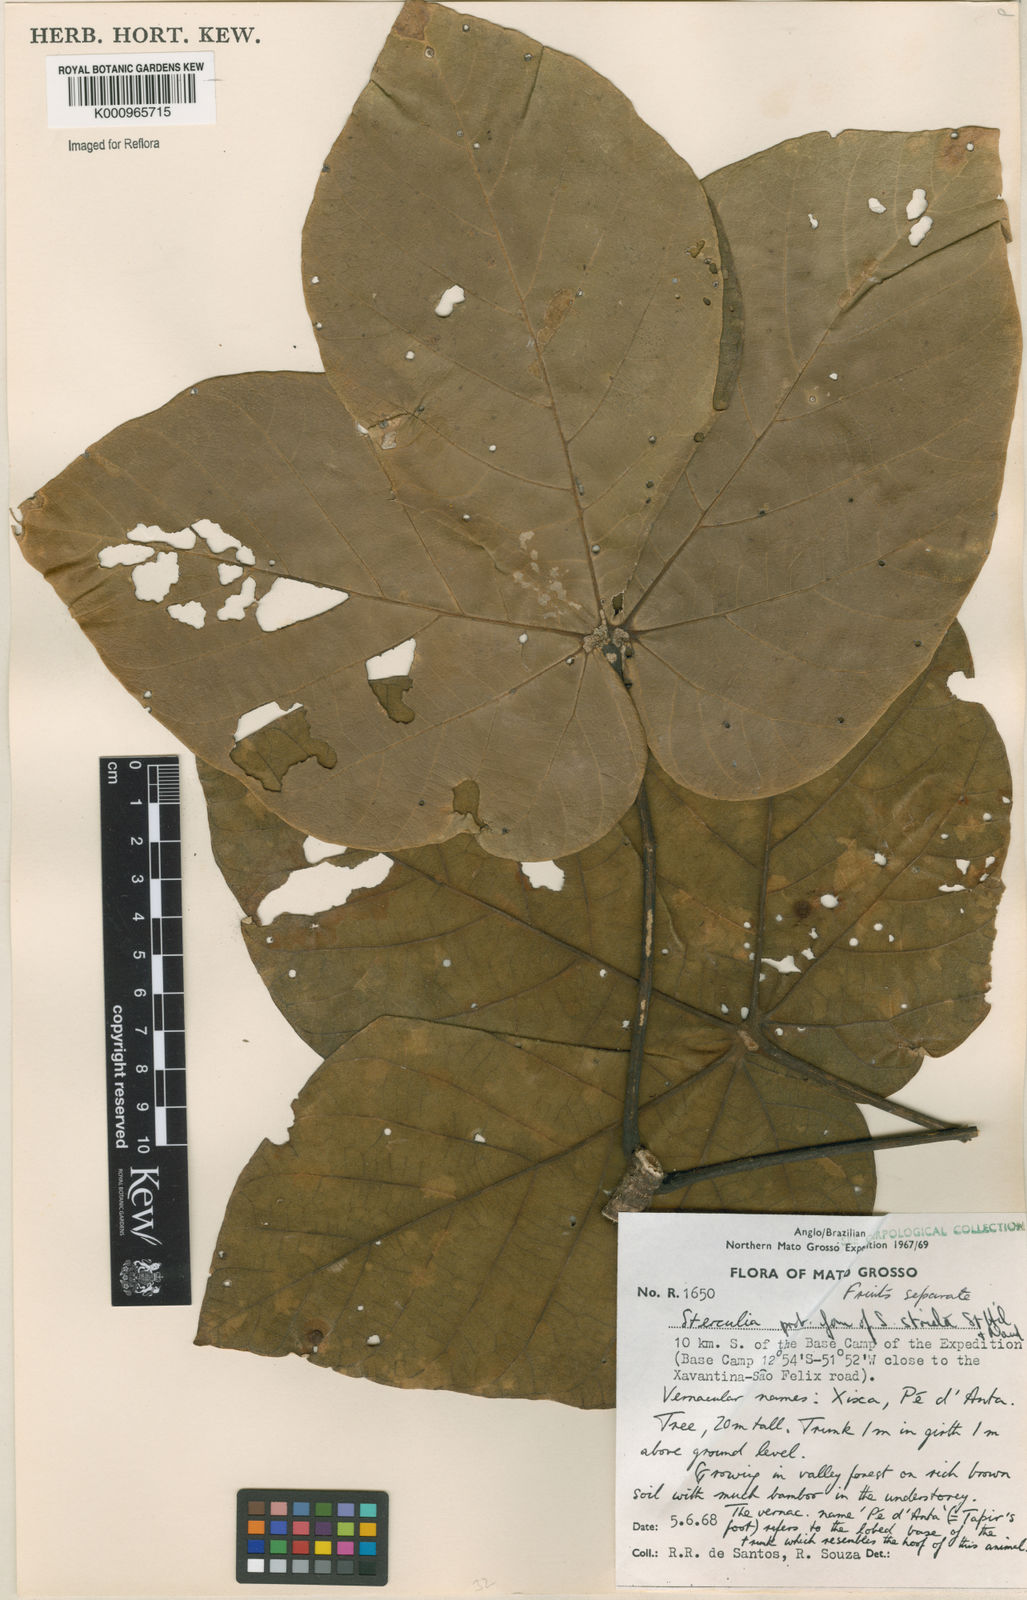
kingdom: Plantae
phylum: Tracheophyta
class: Magnoliopsida
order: Malvales
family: Malvaceae
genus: Sterculia
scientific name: Sterculia striata
